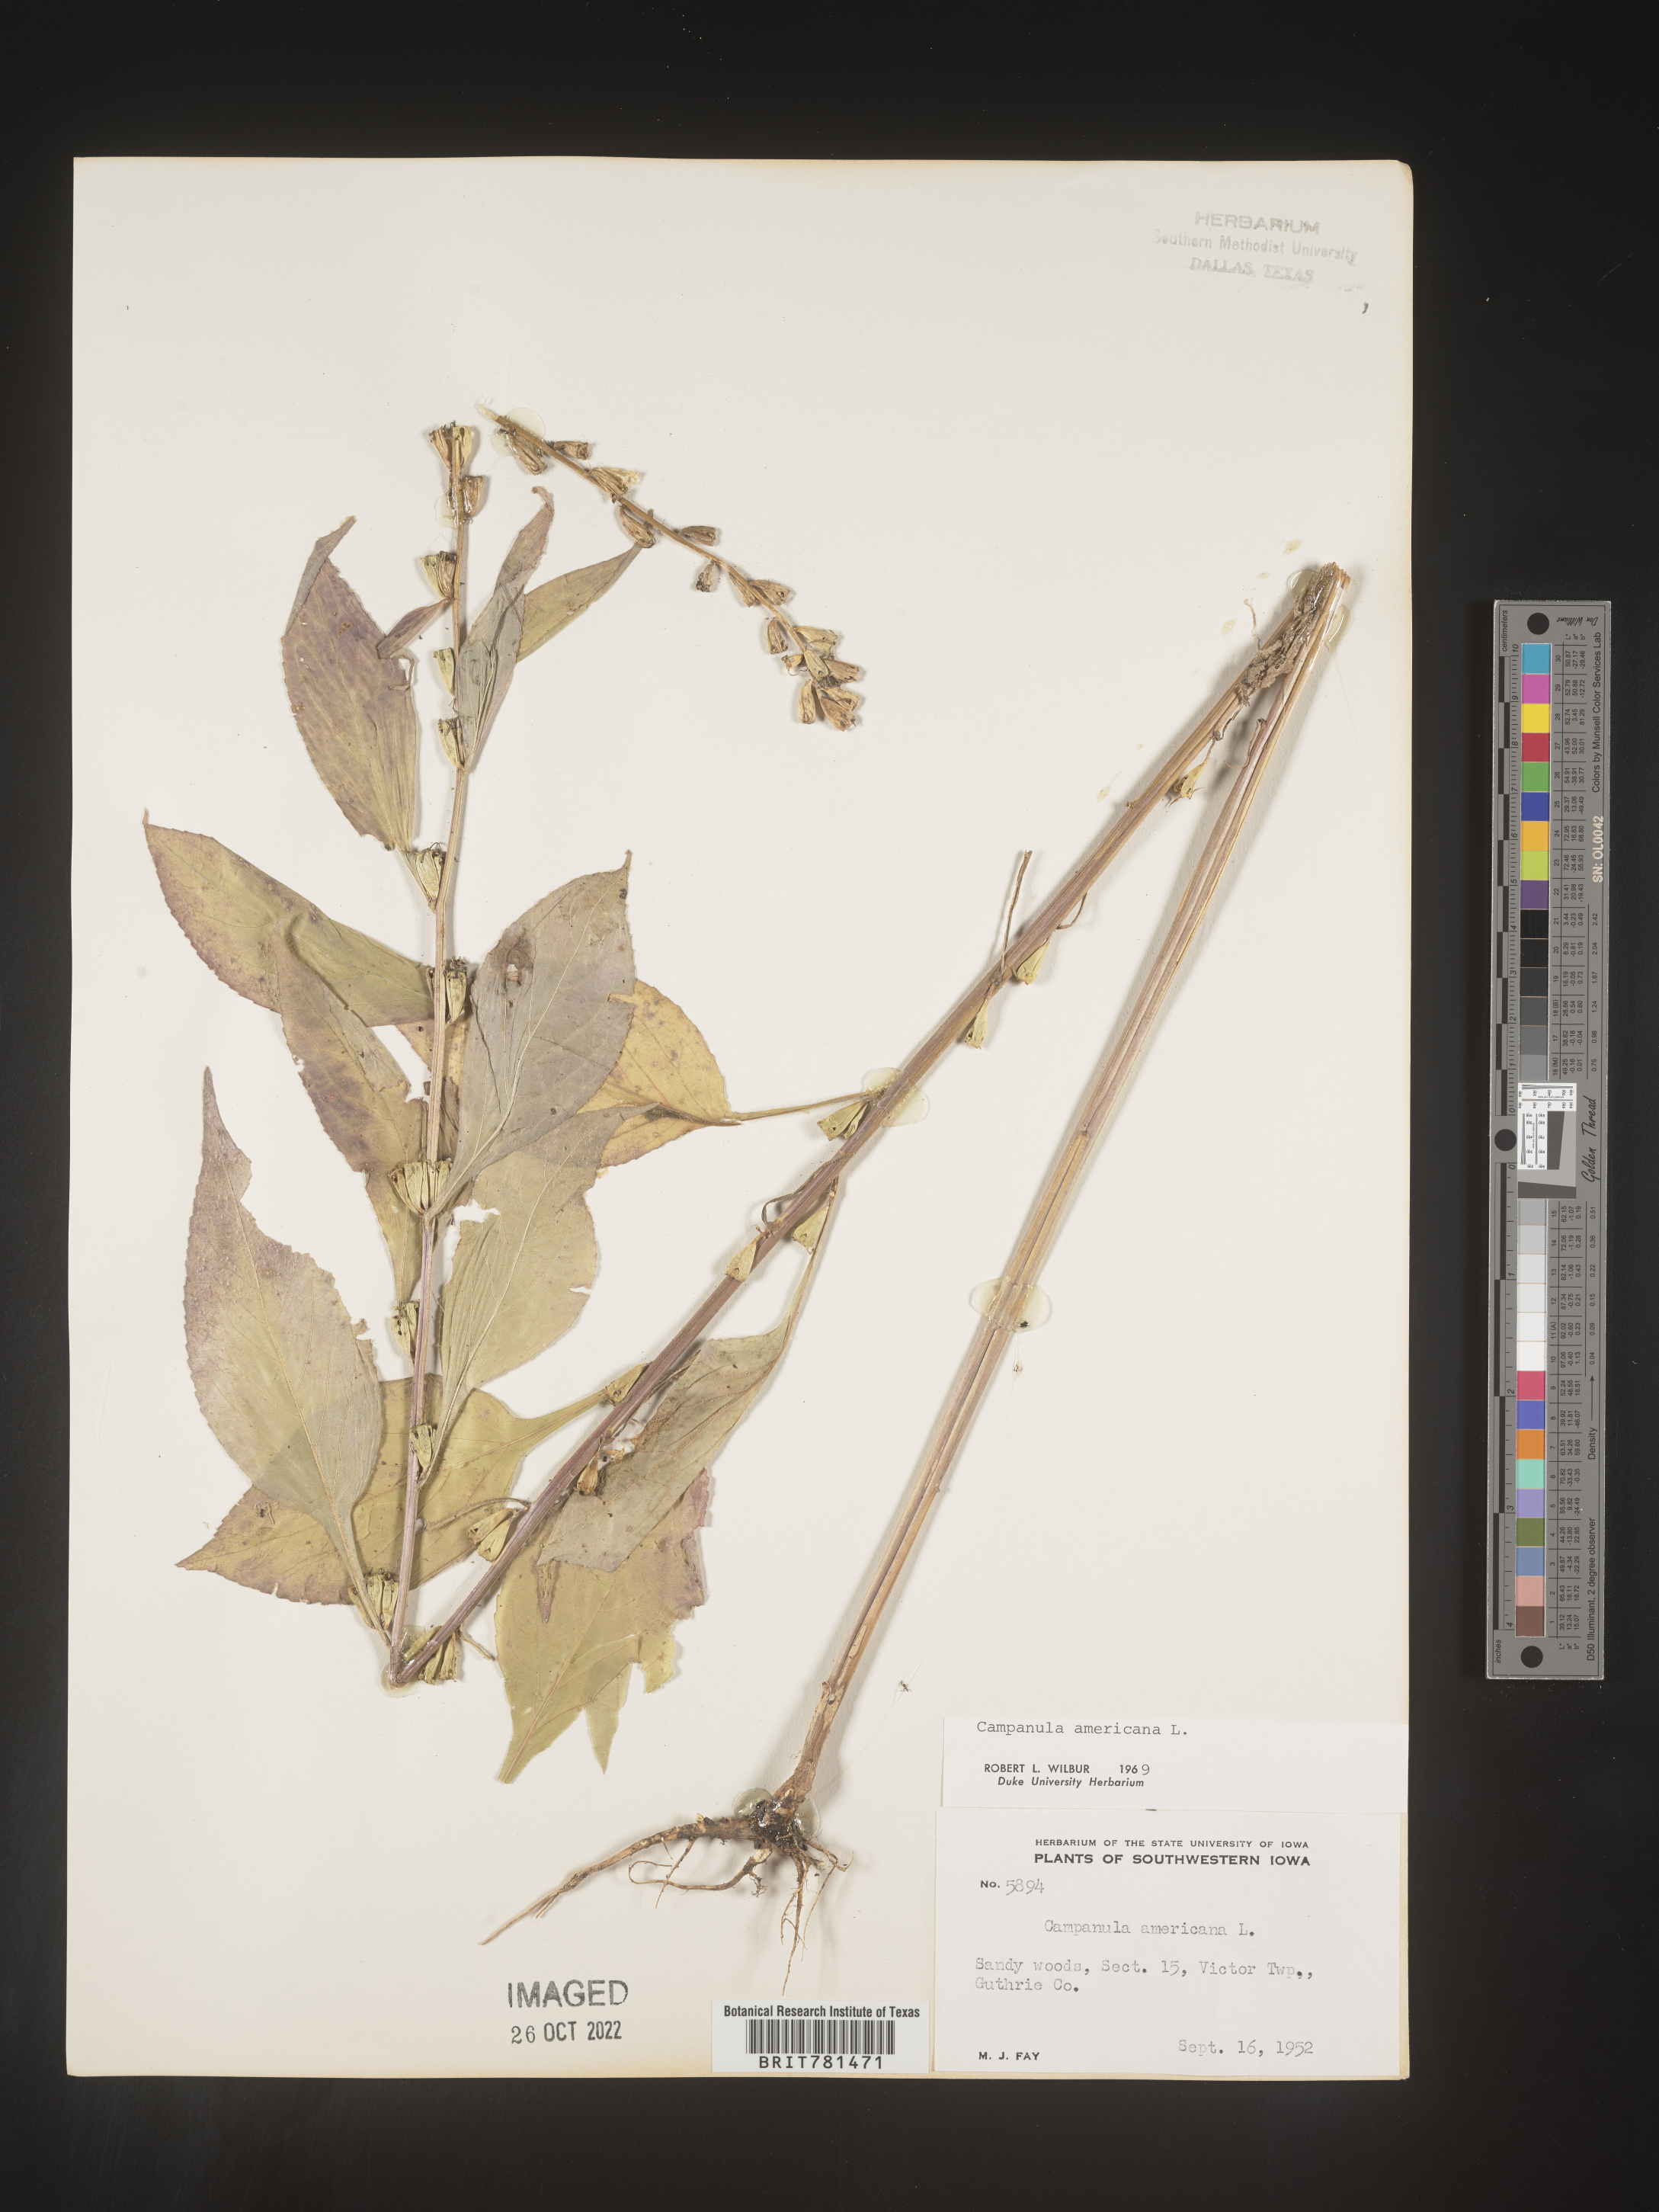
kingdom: Plantae
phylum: Tracheophyta
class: Magnoliopsida
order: Asterales
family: Campanulaceae
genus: Campanula
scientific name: Campanula americana
